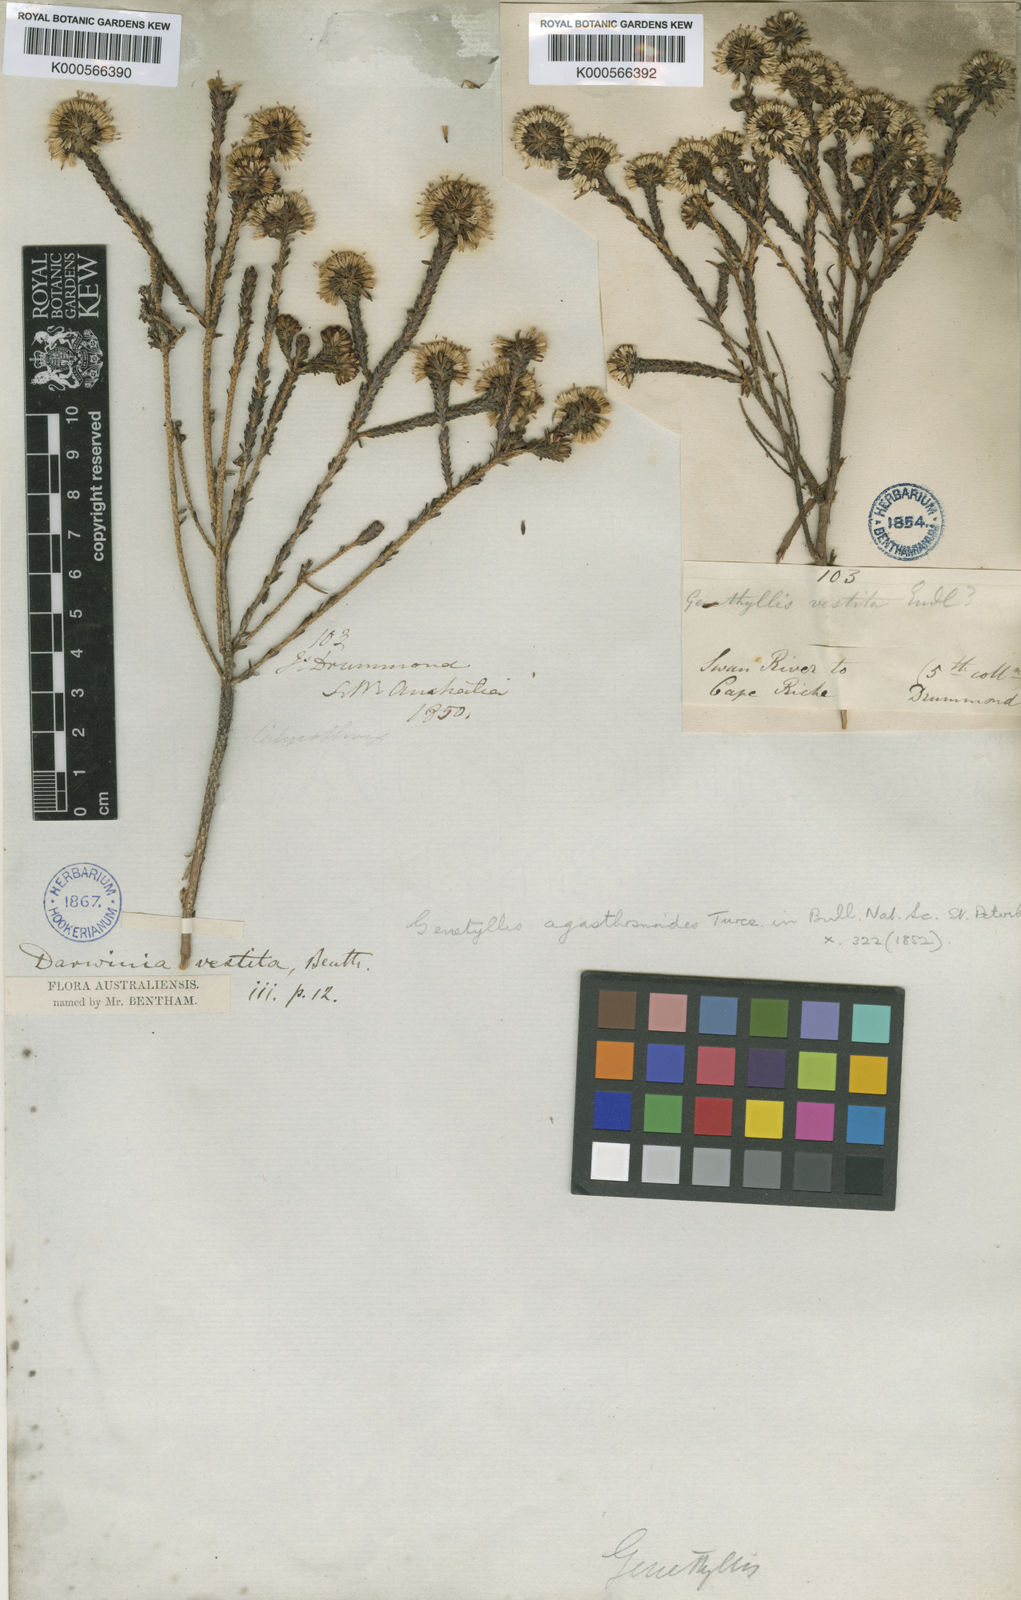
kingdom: Plantae
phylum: Tracheophyta
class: Magnoliopsida
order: Myrtales
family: Myrtaceae
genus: Darwinia
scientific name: Darwinia vestita
